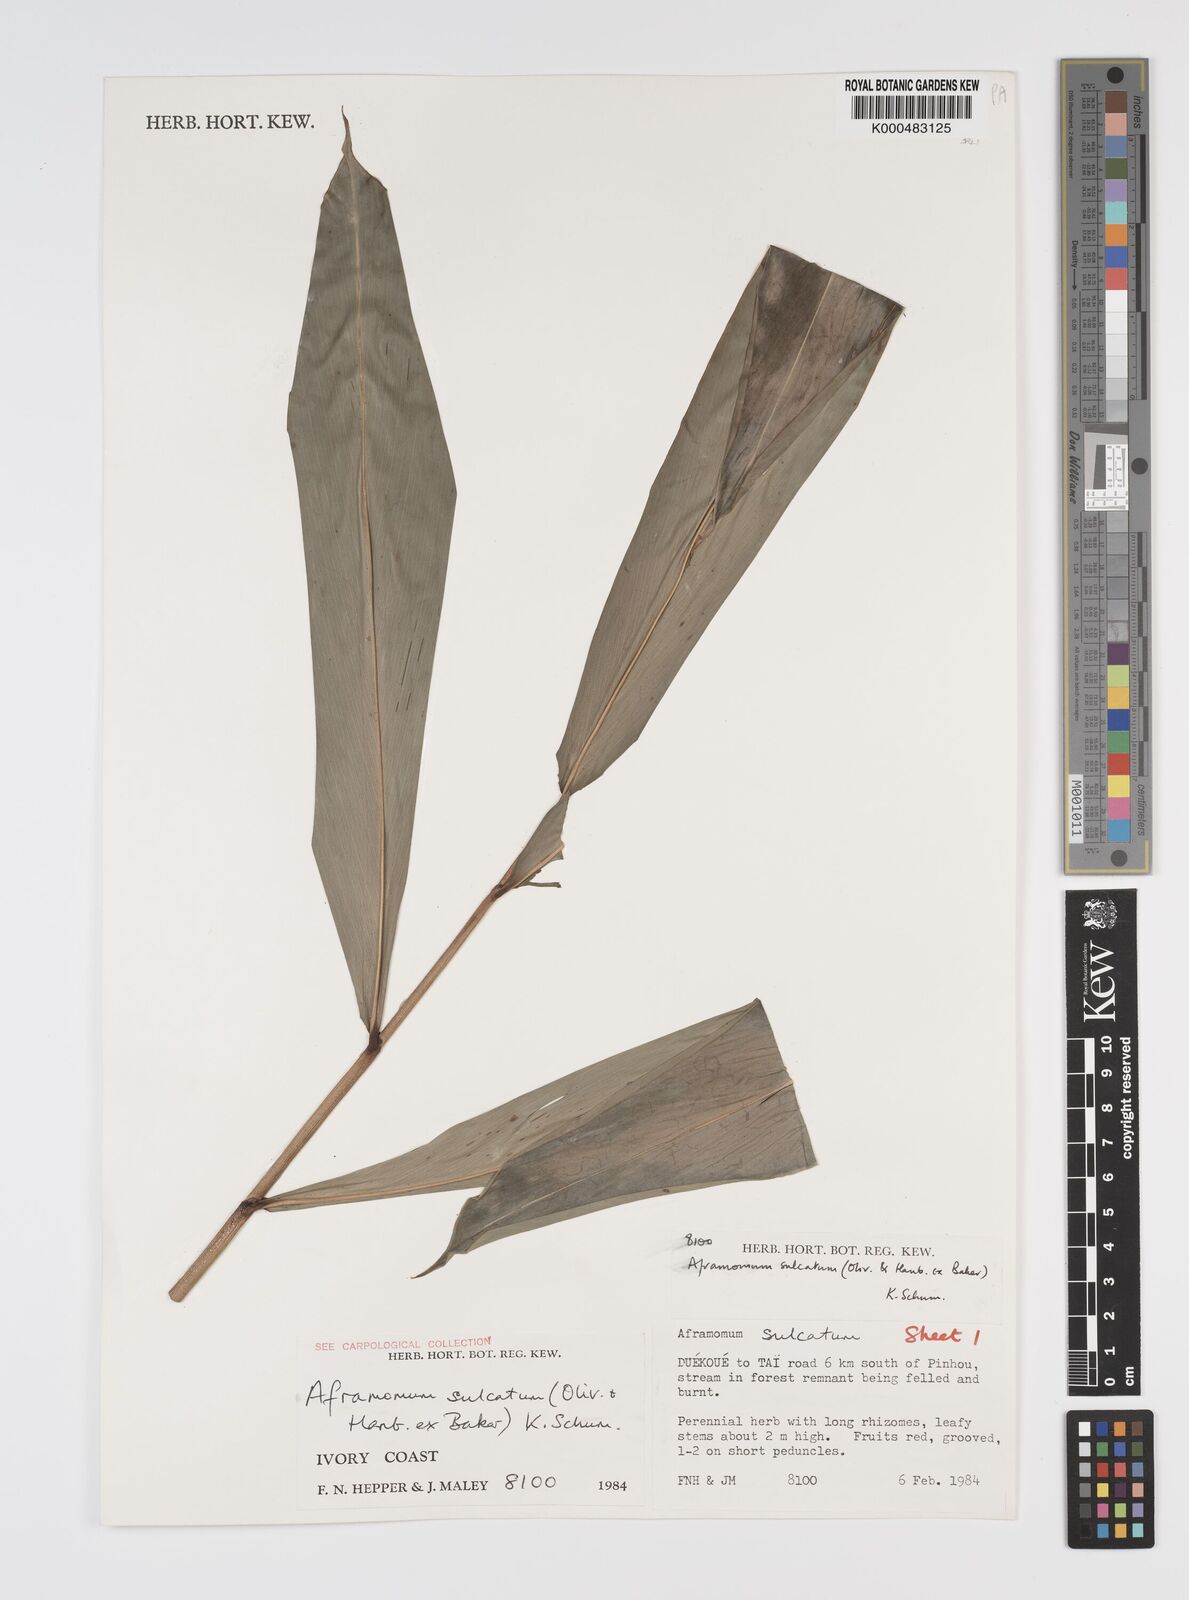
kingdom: Plantae
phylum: Tracheophyta
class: Liliopsida
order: Zingiberales
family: Zingiberaceae
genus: Aframomum
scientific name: Aframomum sulcatum
